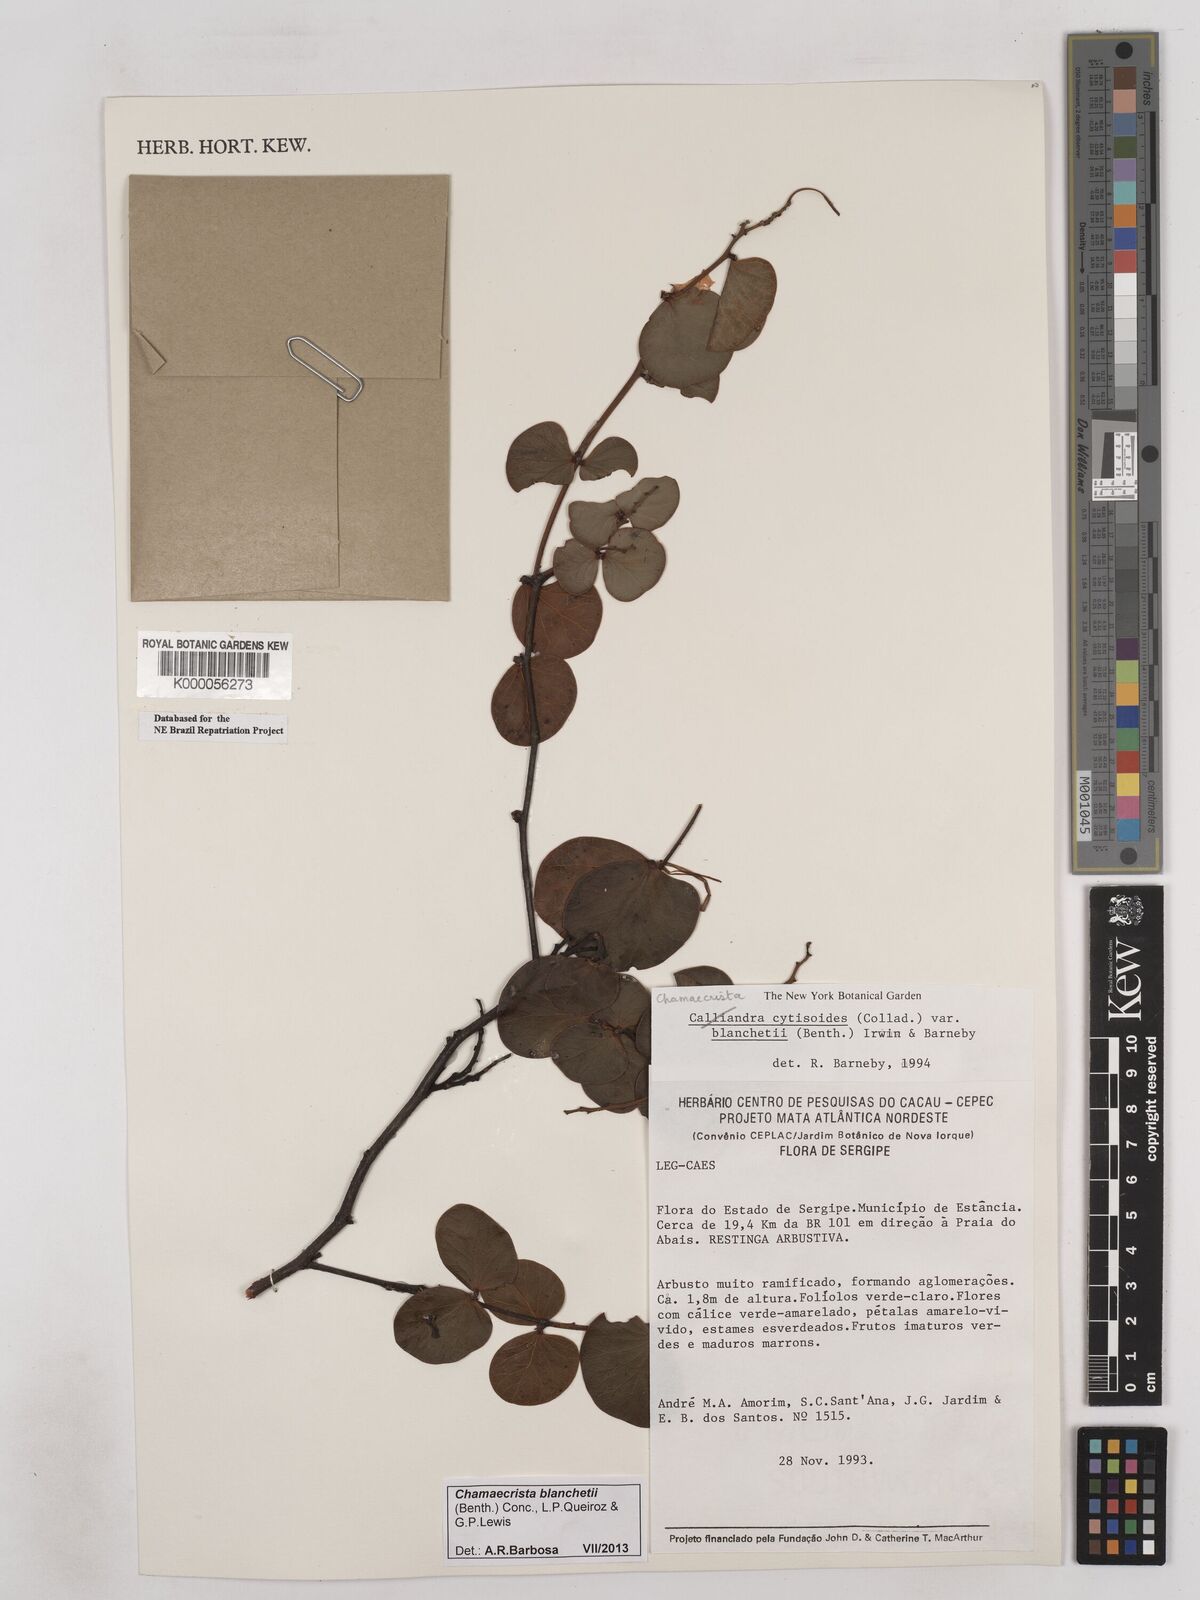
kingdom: Plantae
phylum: Tracheophyta
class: Magnoliopsida
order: Fabales
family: Fabaceae
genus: Chamaecrista
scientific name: Chamaecrista cytisoides
